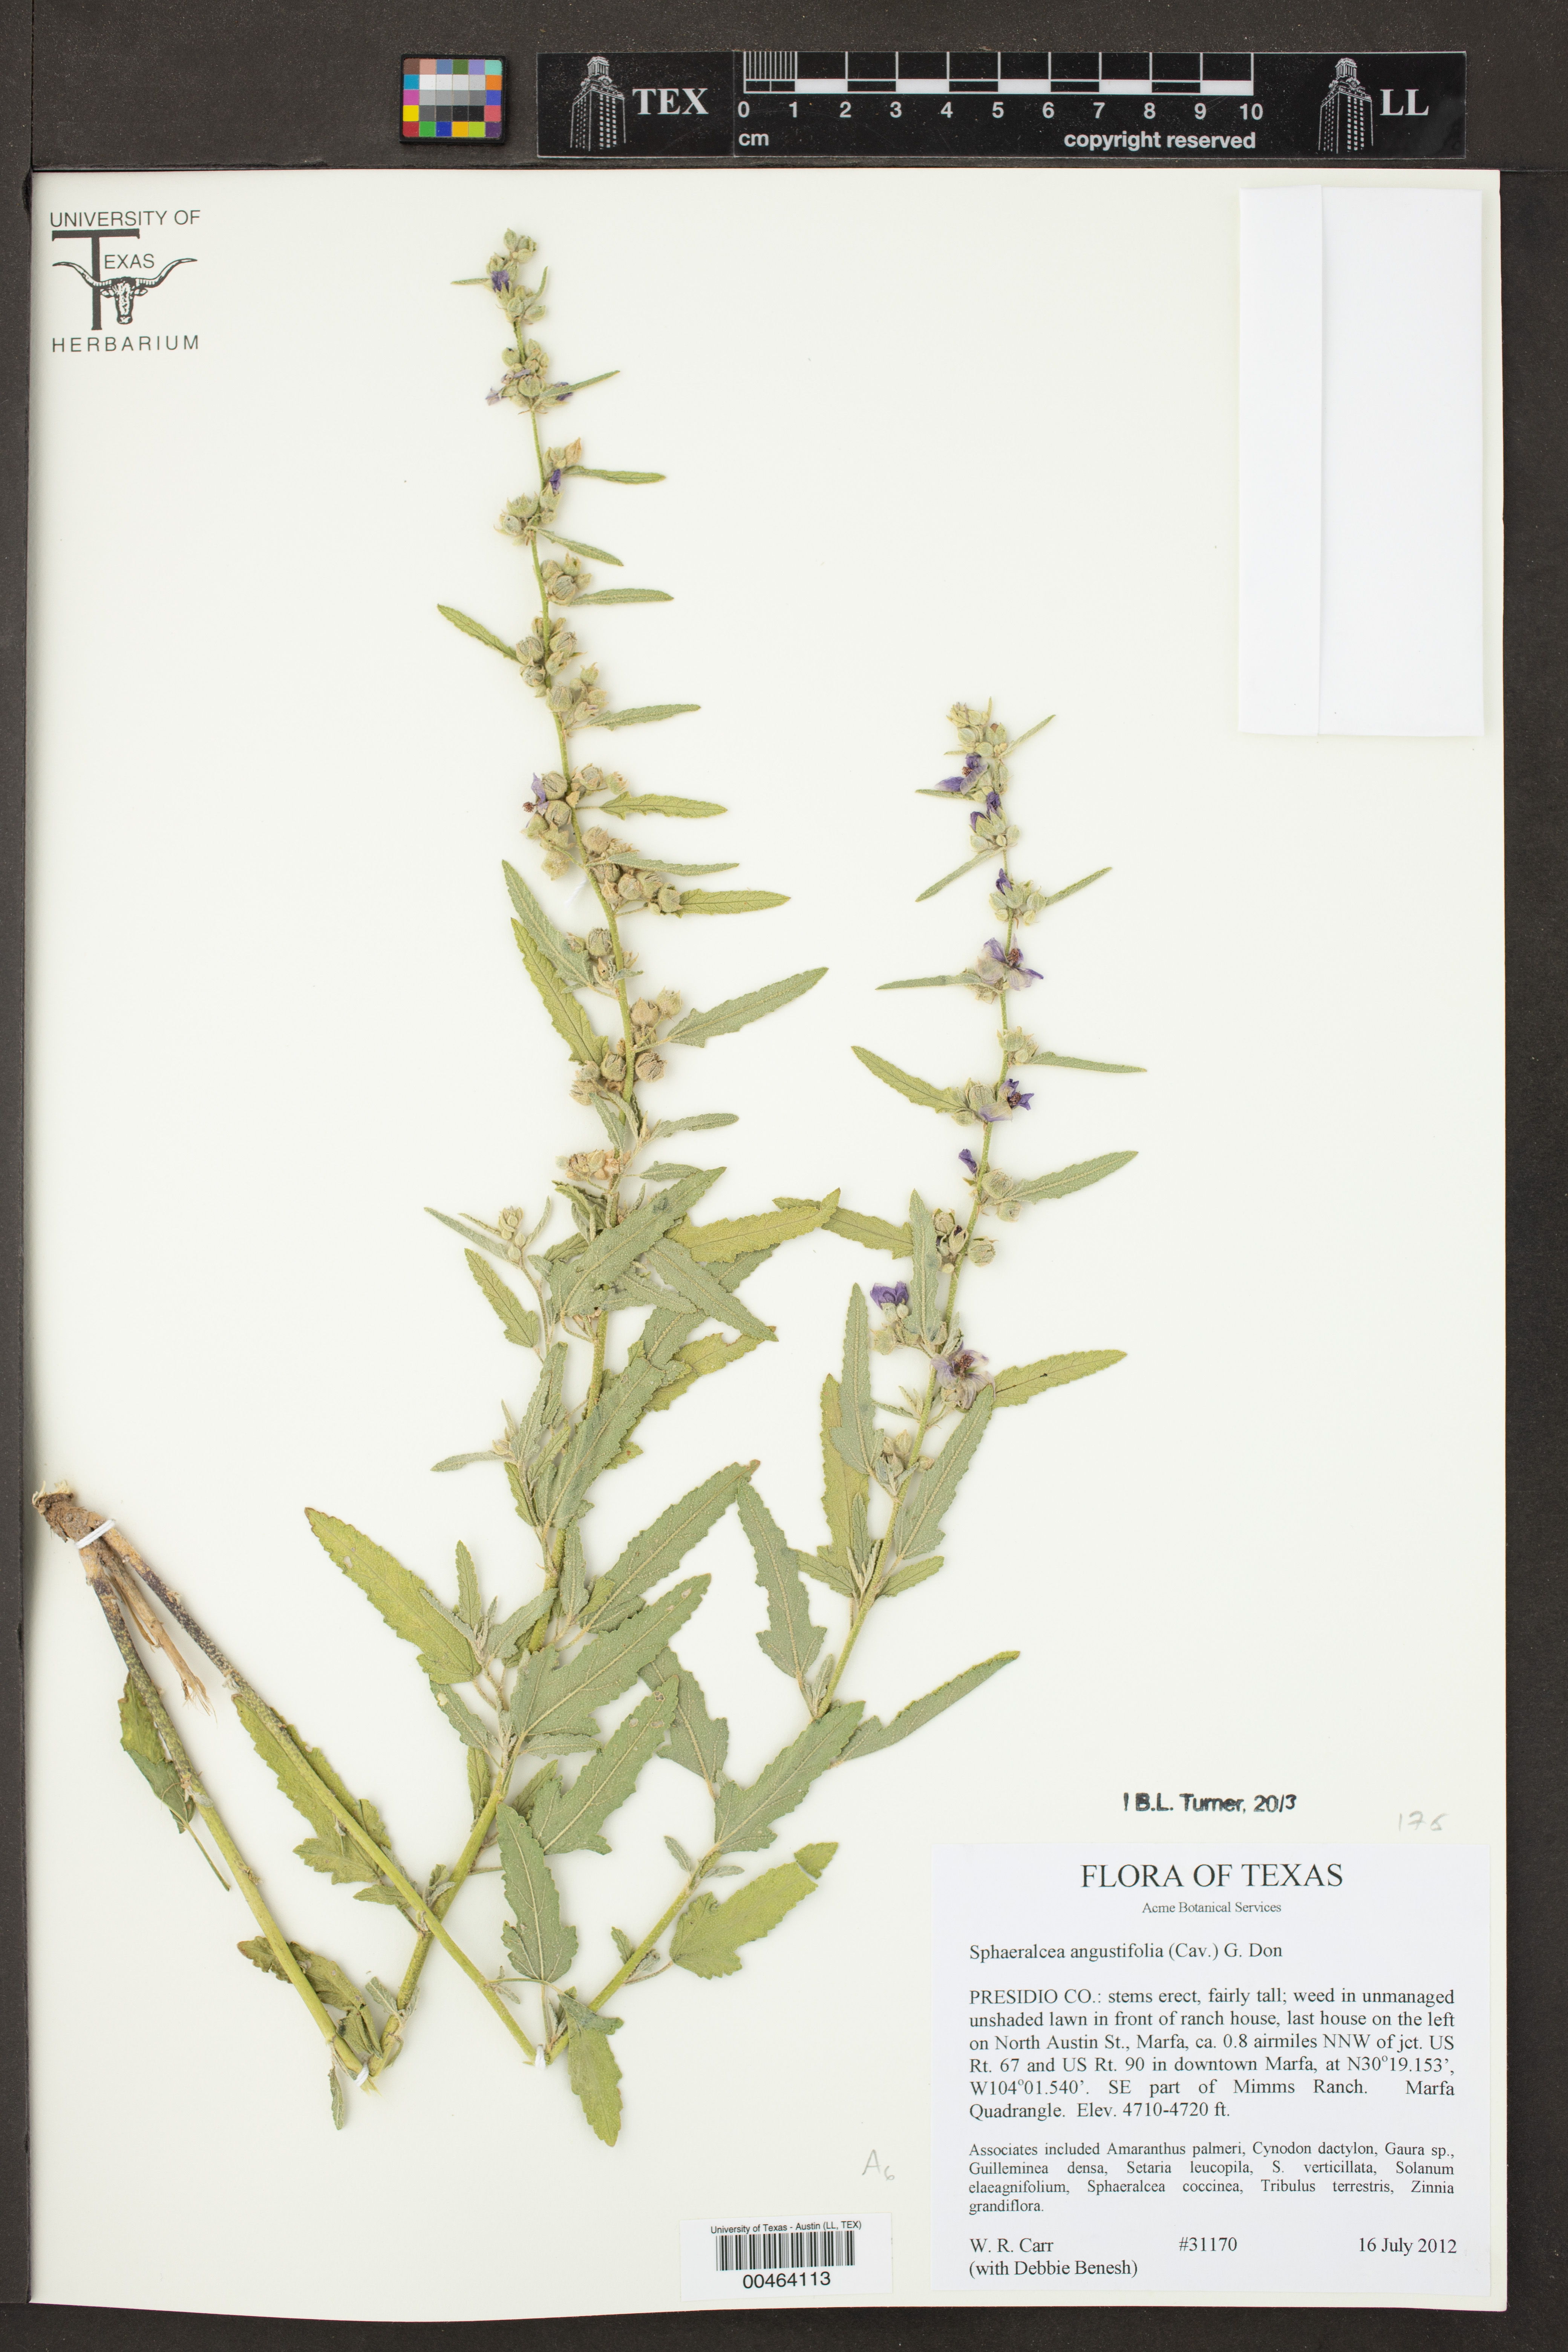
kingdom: Plantae
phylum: Tracheophyta
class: Magnoliopsida
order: Malvales
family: Malvaceae
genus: Sphaeralcea
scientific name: Sphaeralcea angustifolia
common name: Copper globe-mallow
